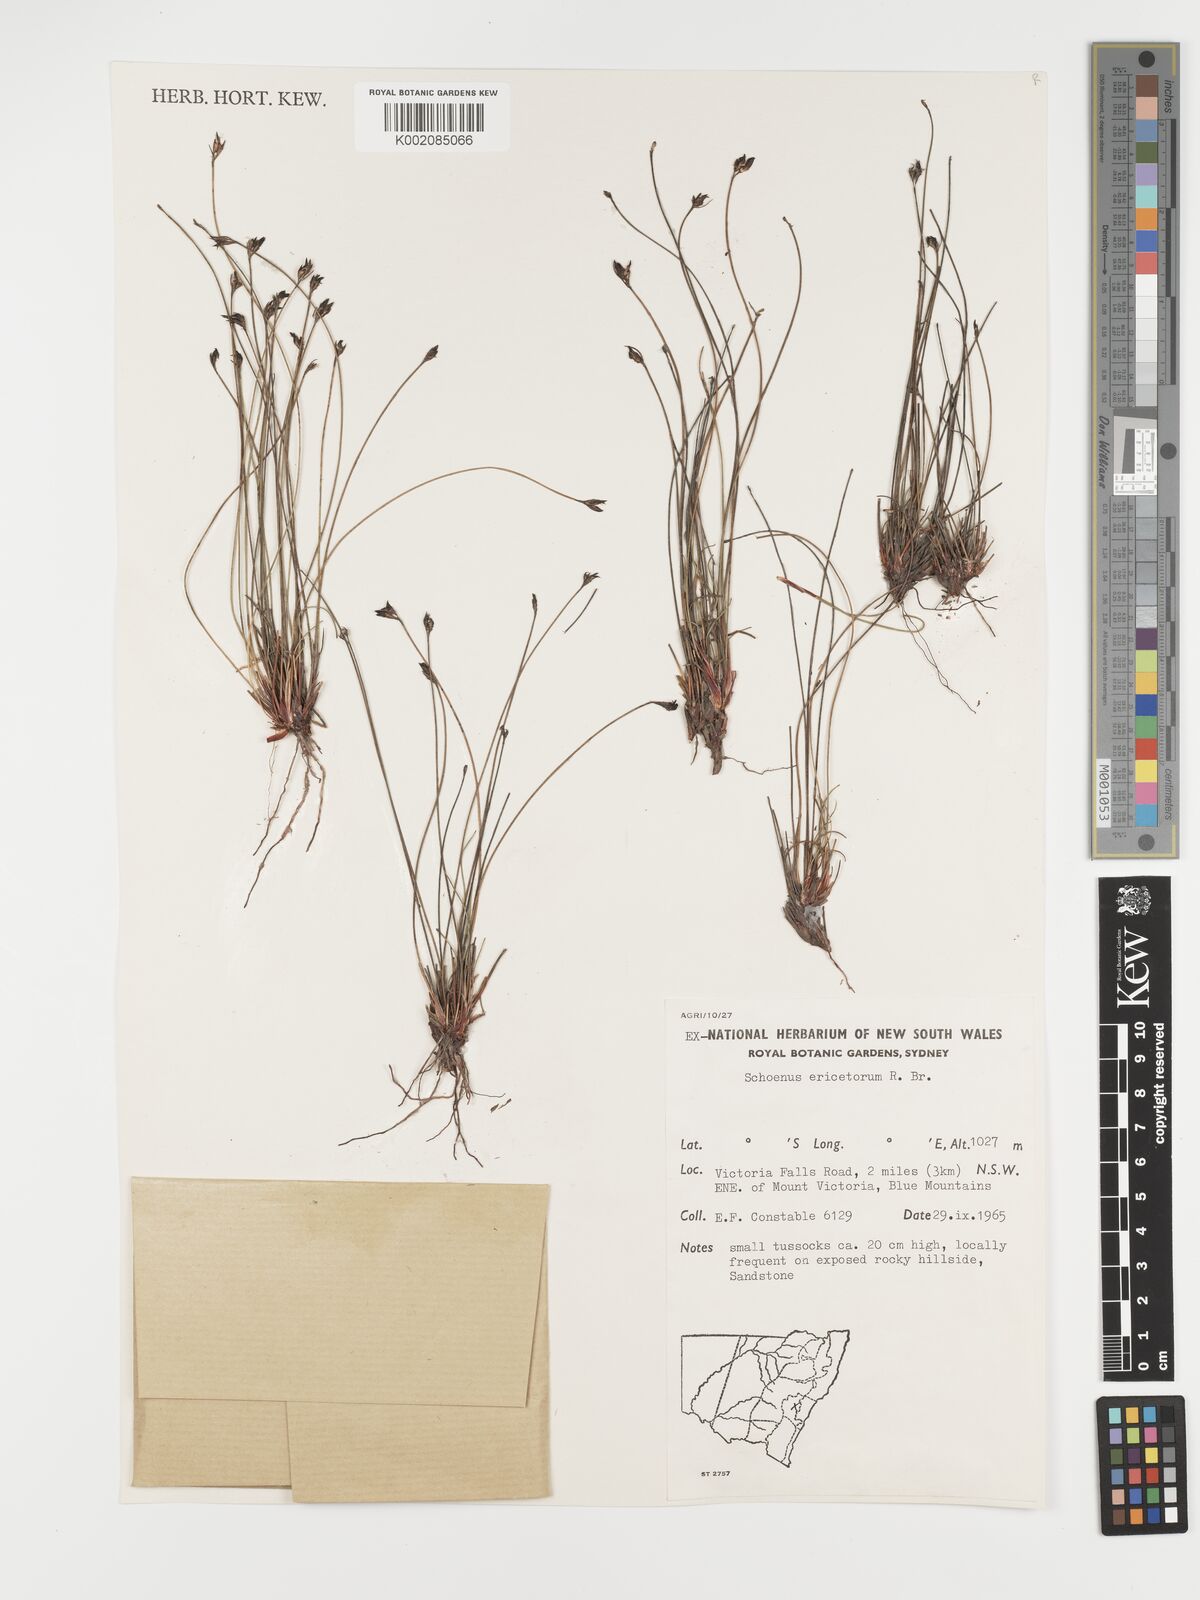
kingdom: Plantae
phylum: Tracheophyta
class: Liliopsida
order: Poales
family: Cyperaceae
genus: Schoenus
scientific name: Schoenus ericetorum
